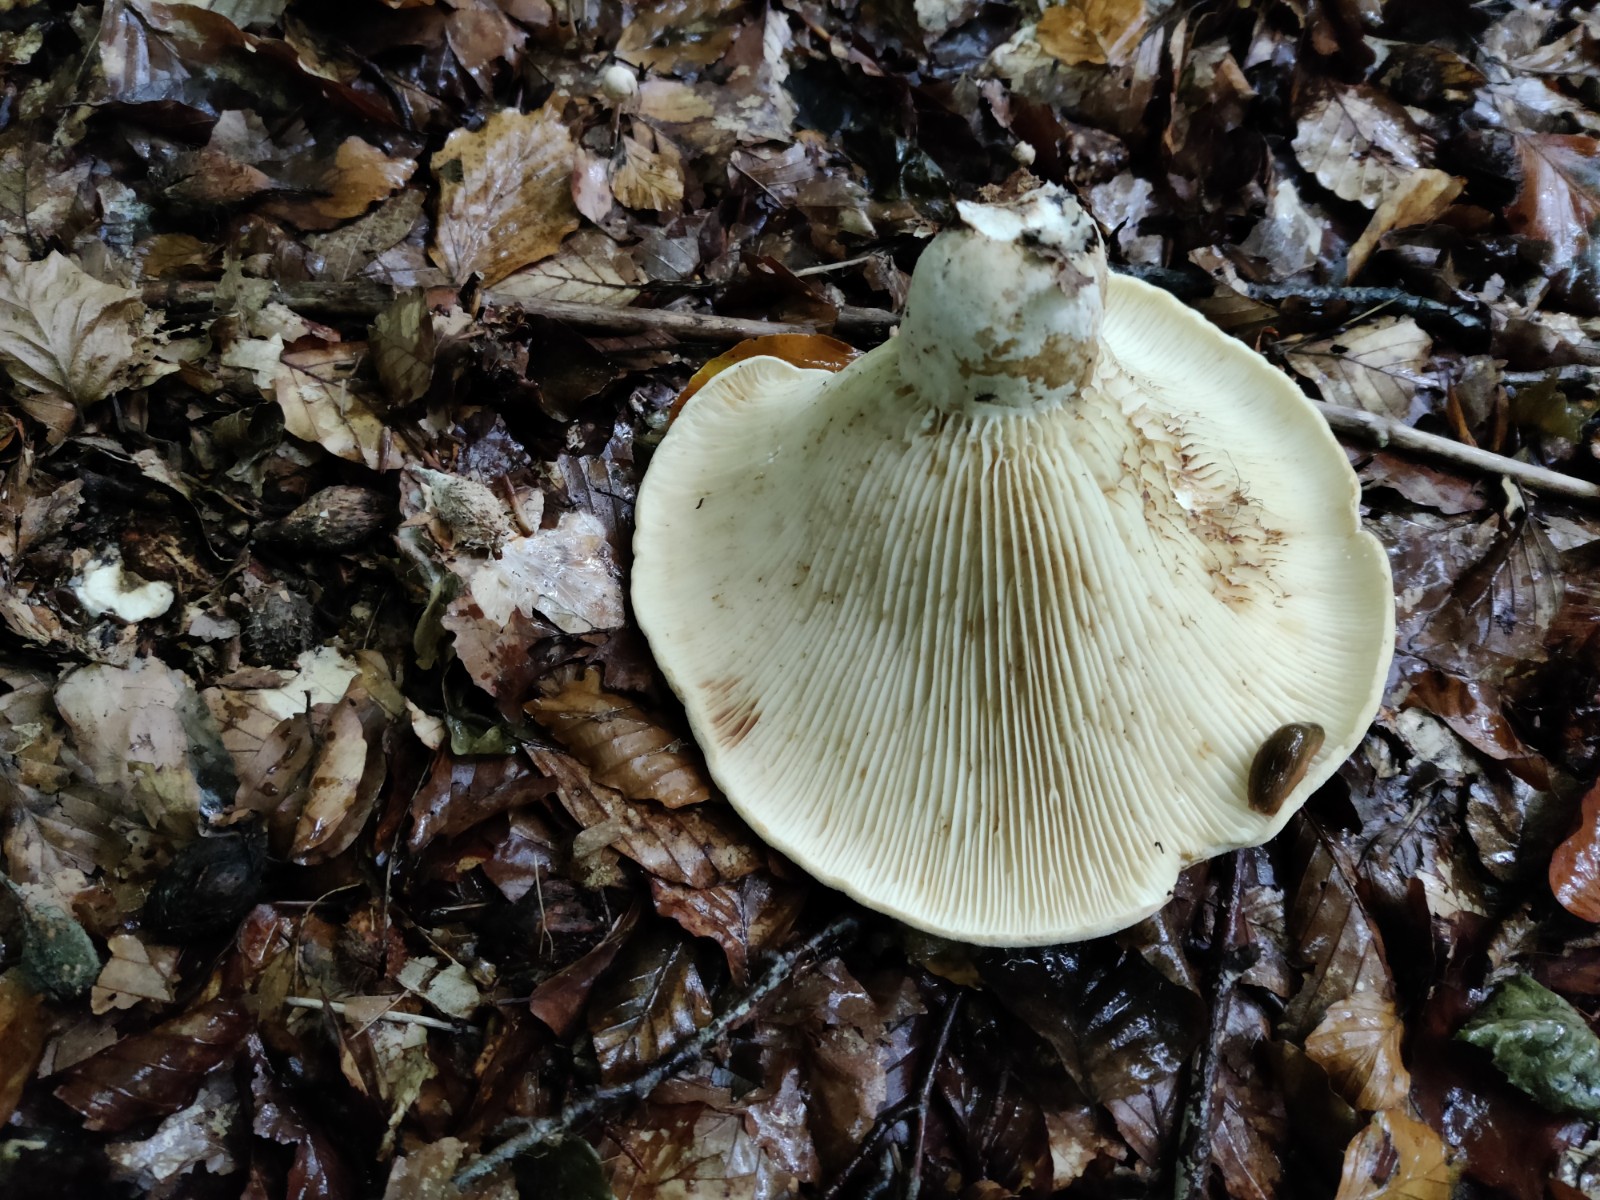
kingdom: Fungi
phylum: Basidiomycota
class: Agaricomycetes
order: Russulales
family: Russulaceae
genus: Russula
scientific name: Russula chloroides
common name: grønhalset tragt-skørhat
